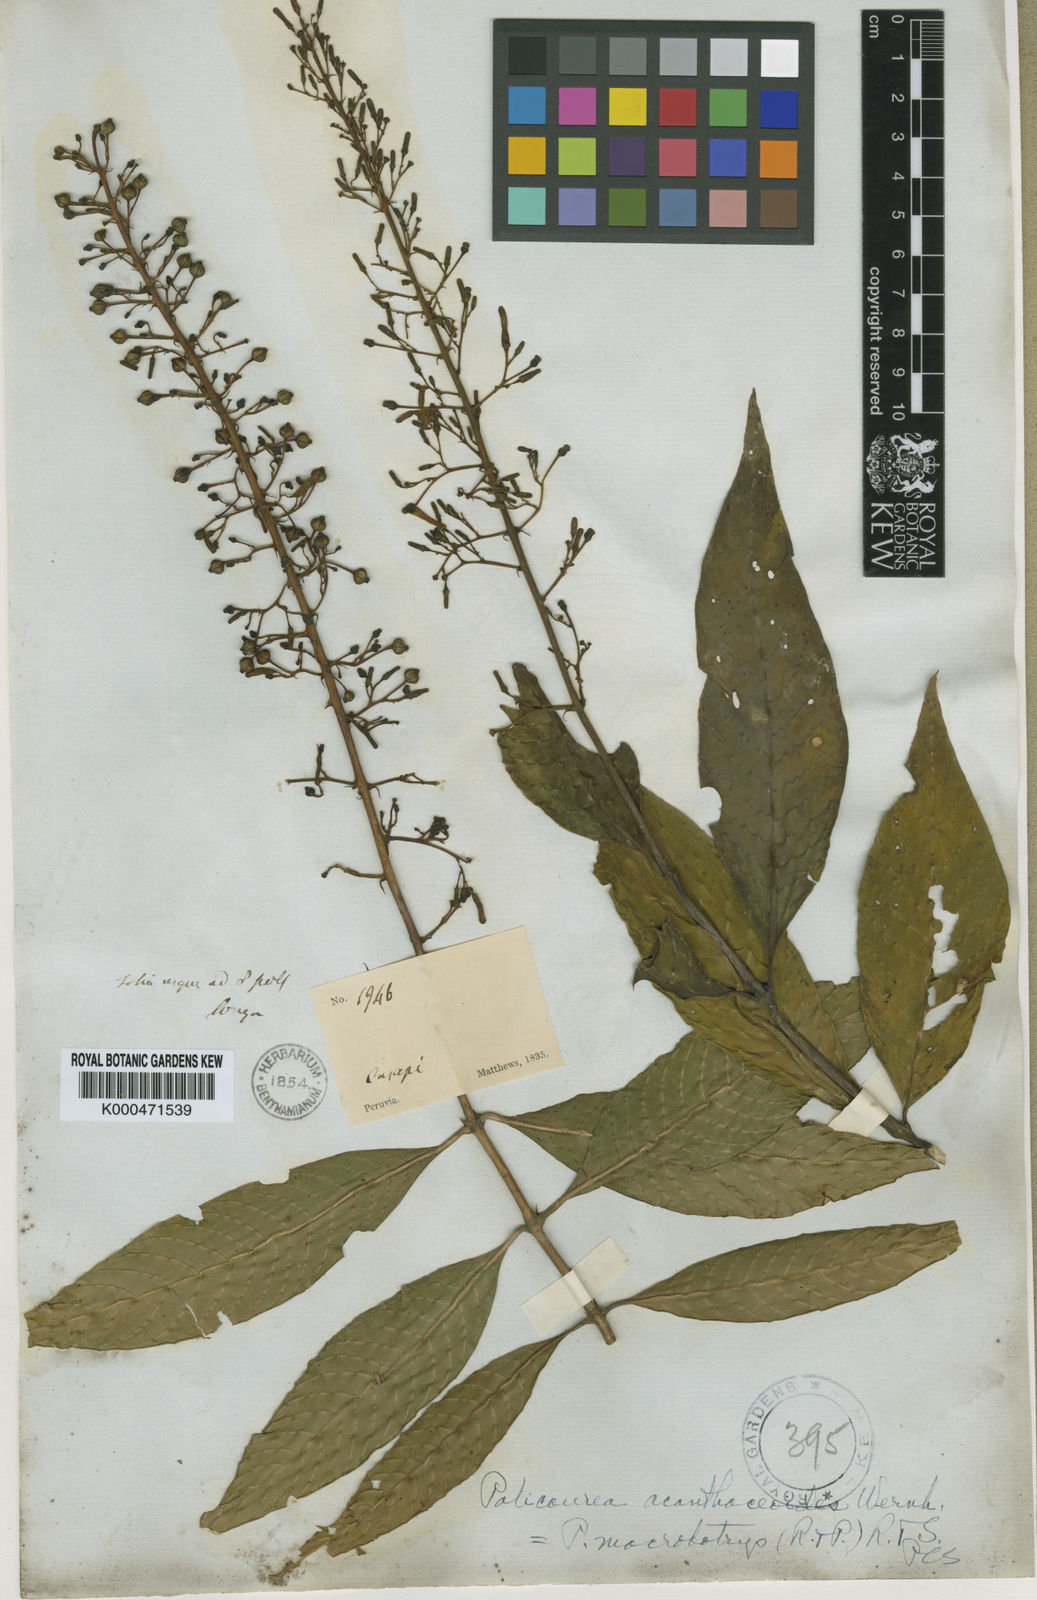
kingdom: Plantae
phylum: Tracheophyta
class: Magnoliopsida
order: Gentianales
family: Rubiaceae
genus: Palicourea
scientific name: Palicourea macrobotrys
